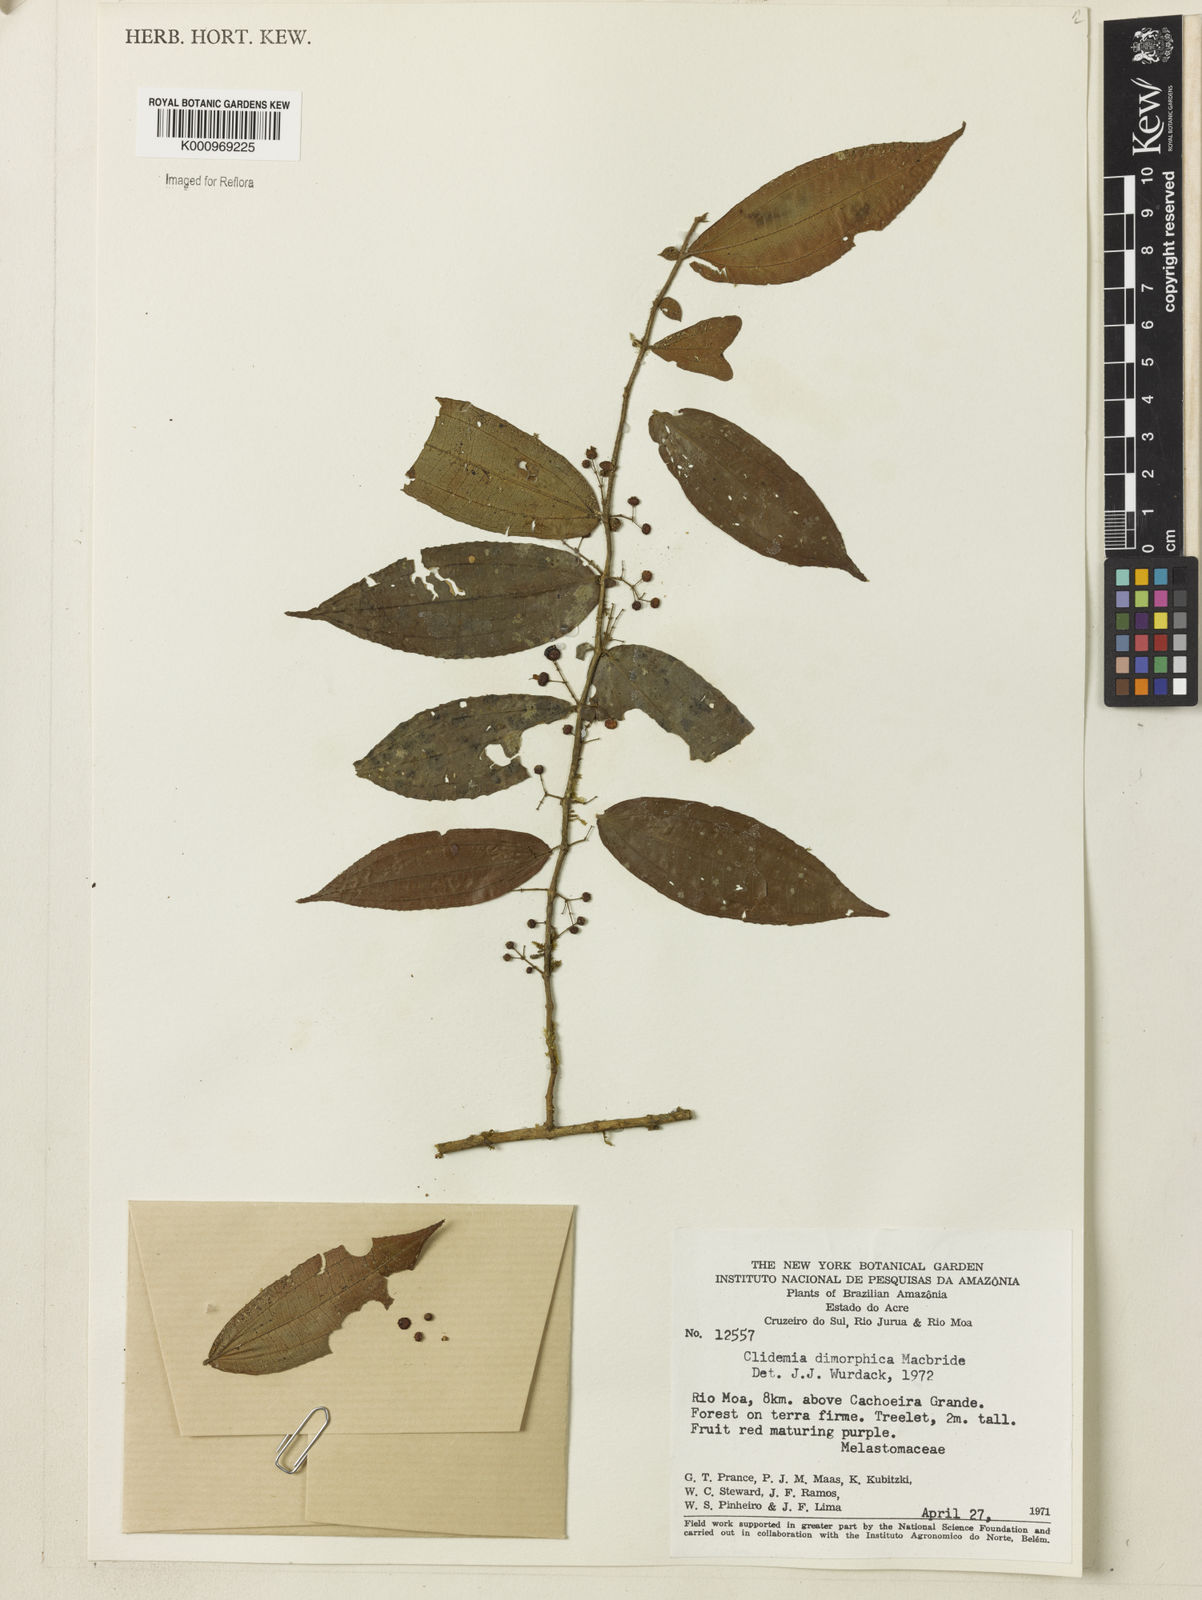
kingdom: Plantae
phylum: Tracheophyta
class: Magnoliopsida
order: Myrtales
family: Melastomataceae
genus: Miconia
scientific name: Miconia dimorphica
